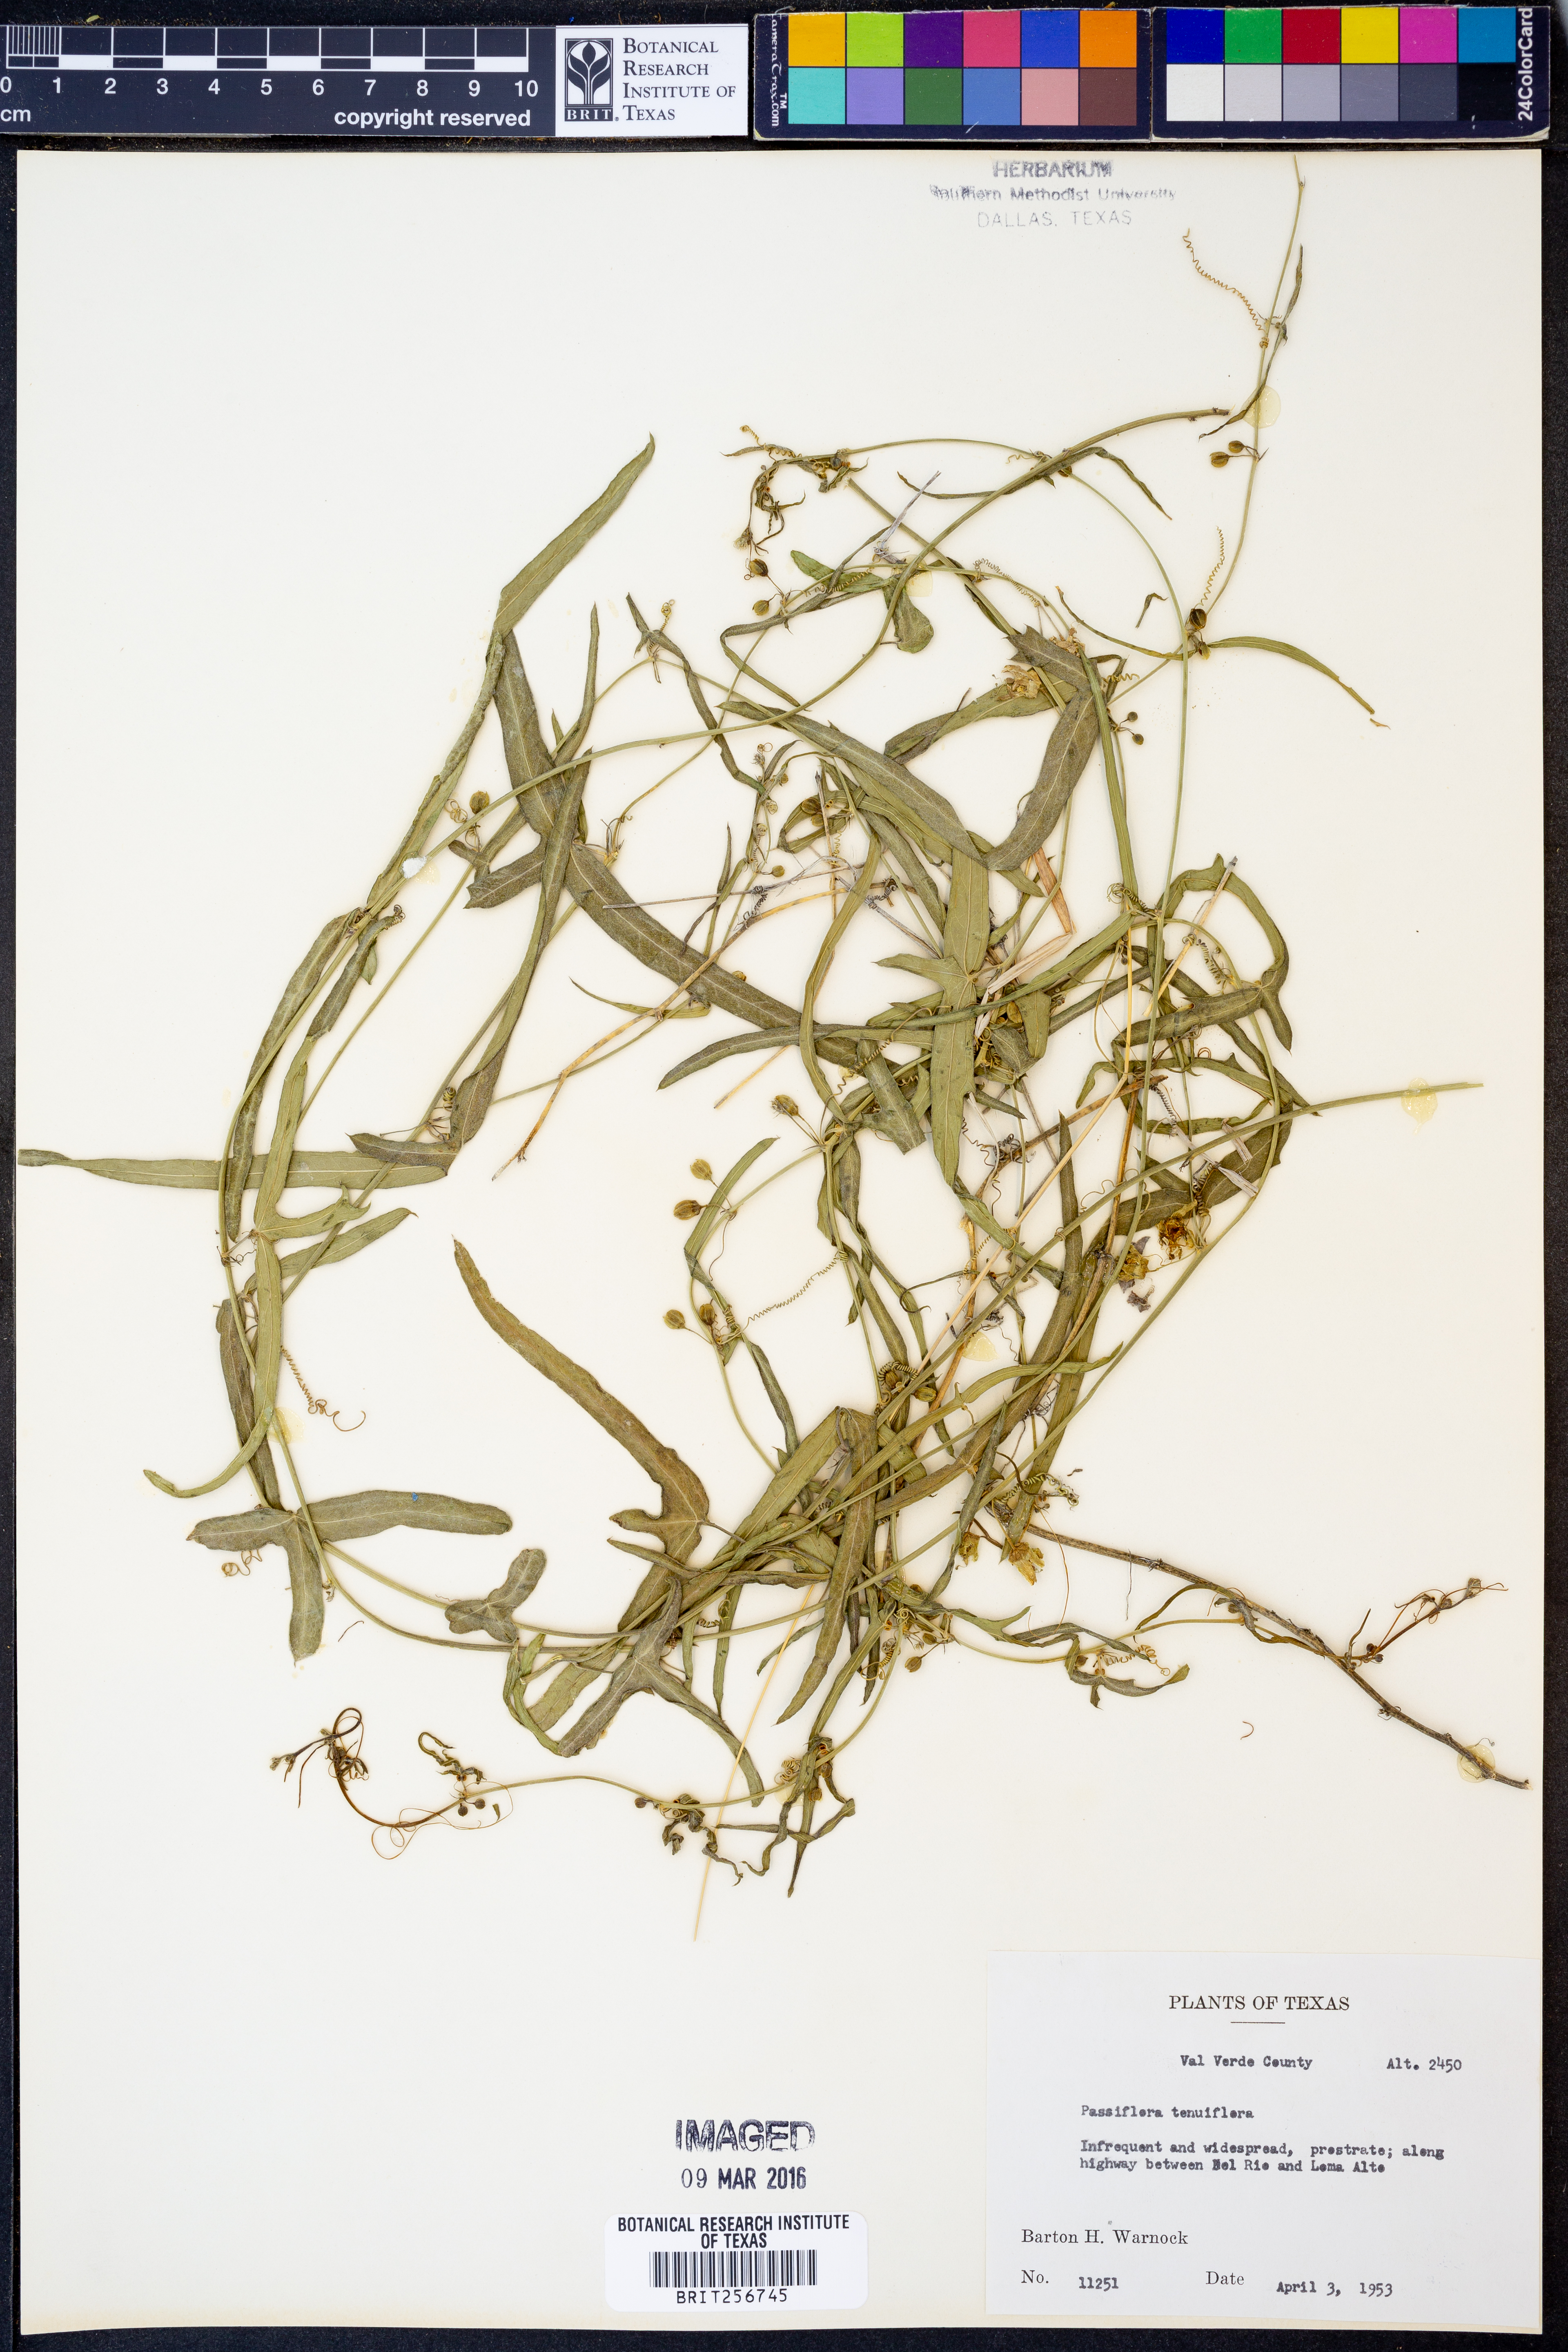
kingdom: Plantae
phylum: Tracheophyta
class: Magnoliopsida
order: Malpighiales
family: Passifloraceae
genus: Passiflora
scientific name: Passiflora tenuiloba
